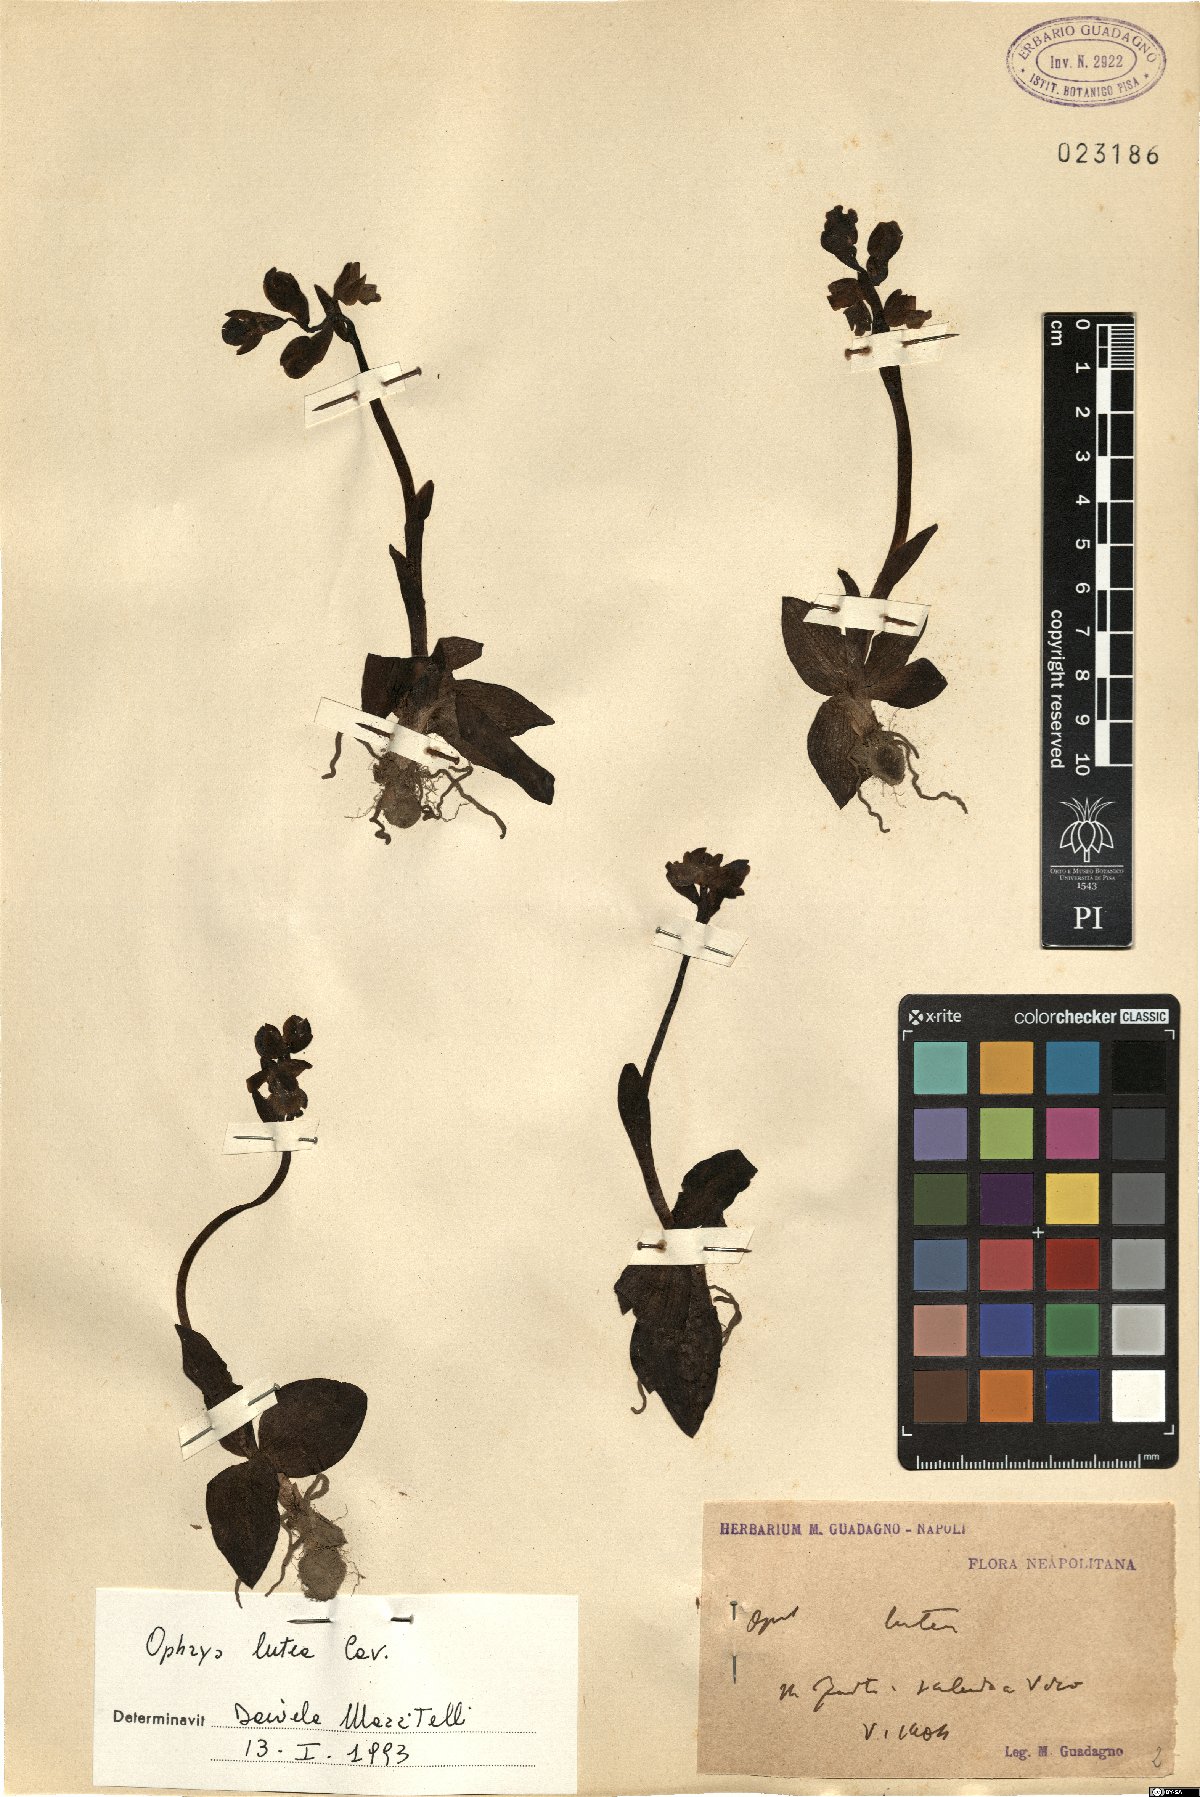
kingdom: Plantae
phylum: Tracheophyta
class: Liliopsida
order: Asparagales
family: Orchidaceae
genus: Ophrys
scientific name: Ophrys lutea
